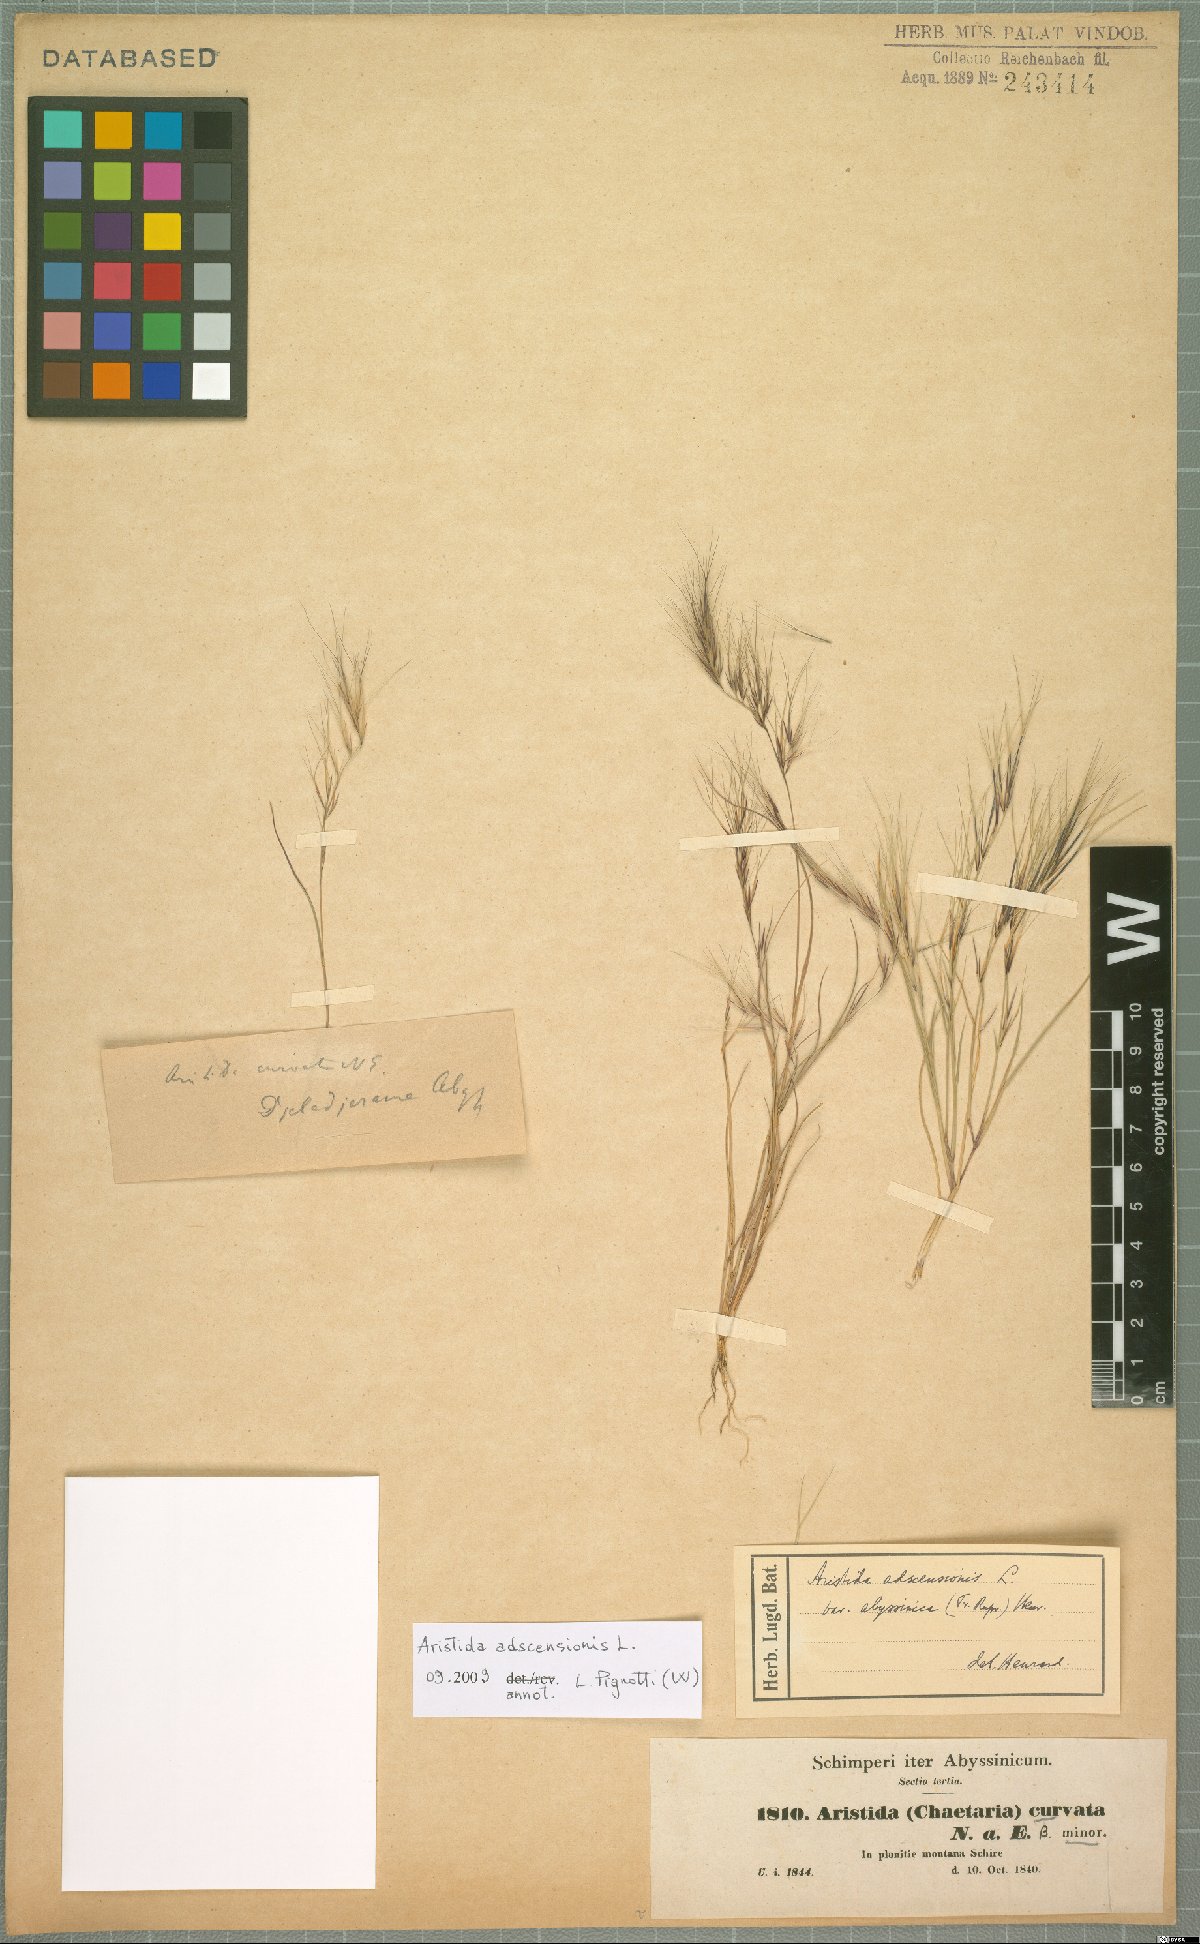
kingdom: Plantae
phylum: Tracheophyta
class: Liliopsida
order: Poales
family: Poaceae
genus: Aristida
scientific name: Aristida adscensionis
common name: Sixweeks threeawn
